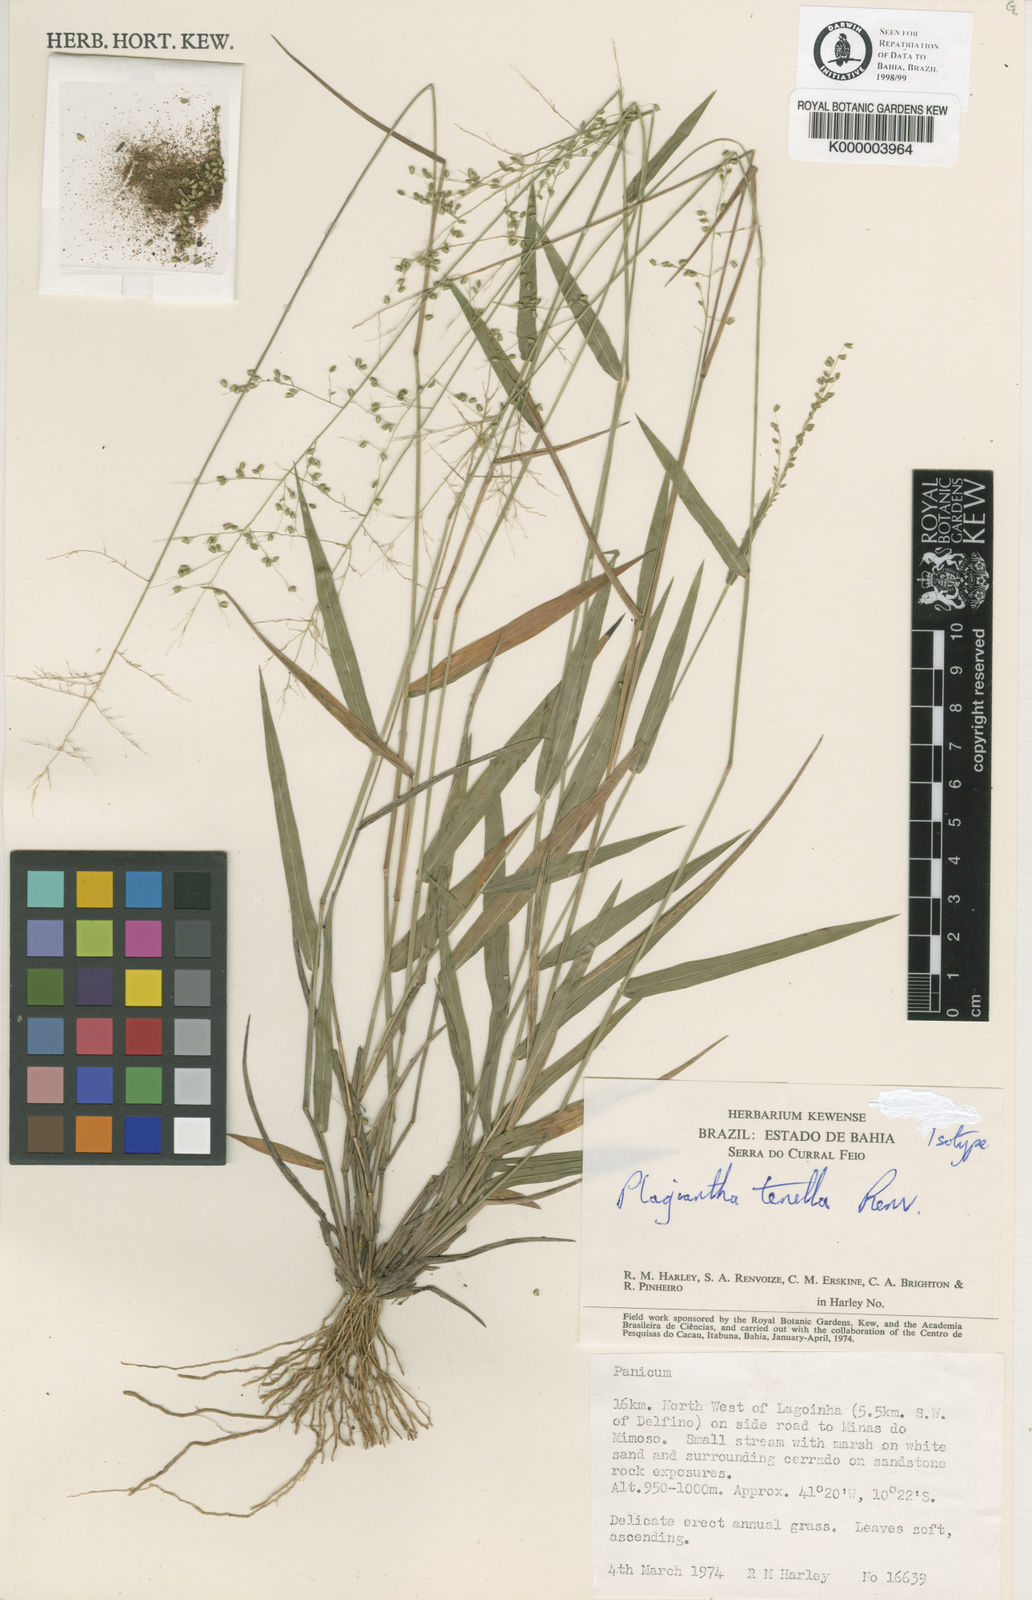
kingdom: Plantae
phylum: Tracheophyta
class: Liliopsida
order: Poales
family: Poaceae
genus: Plagiantha
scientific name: Plagiantha tenella
